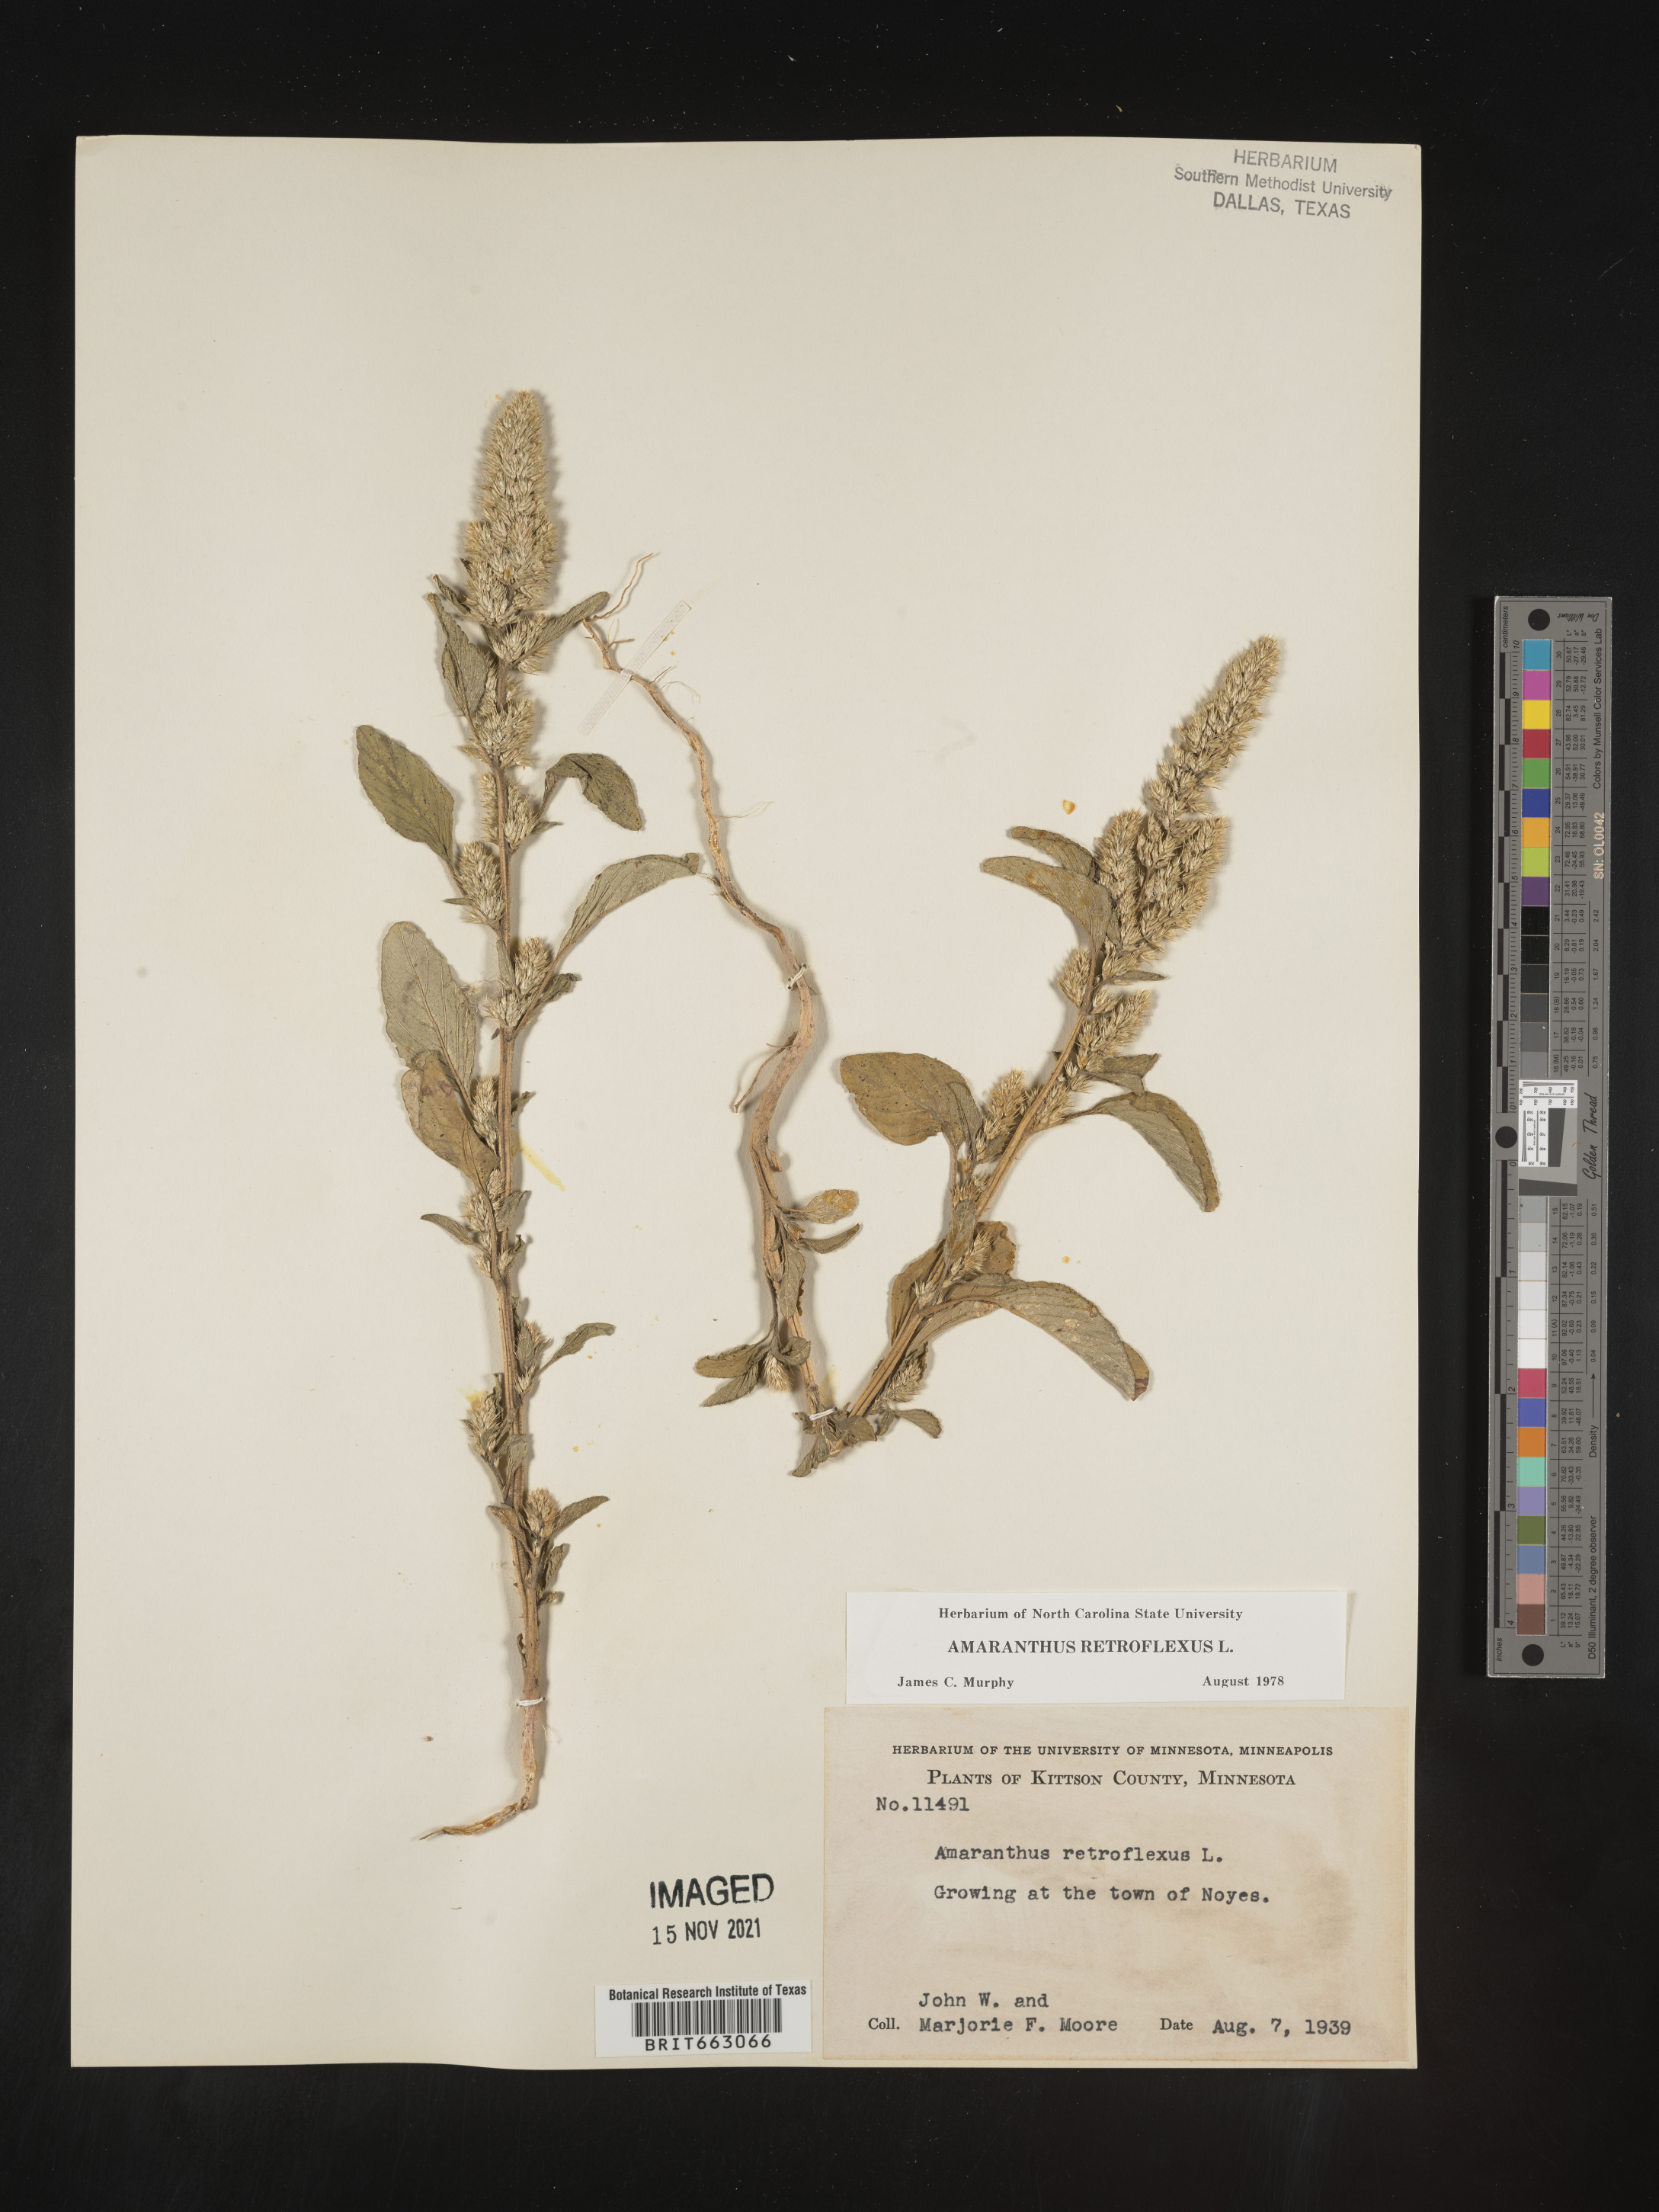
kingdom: Plantae
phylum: Tracheophyta
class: Magnoliopsida
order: Caryophyllales
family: Amaranthaceae
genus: Amaranthus
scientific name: Amaranthus retroflexus
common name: Redroot amaranth
